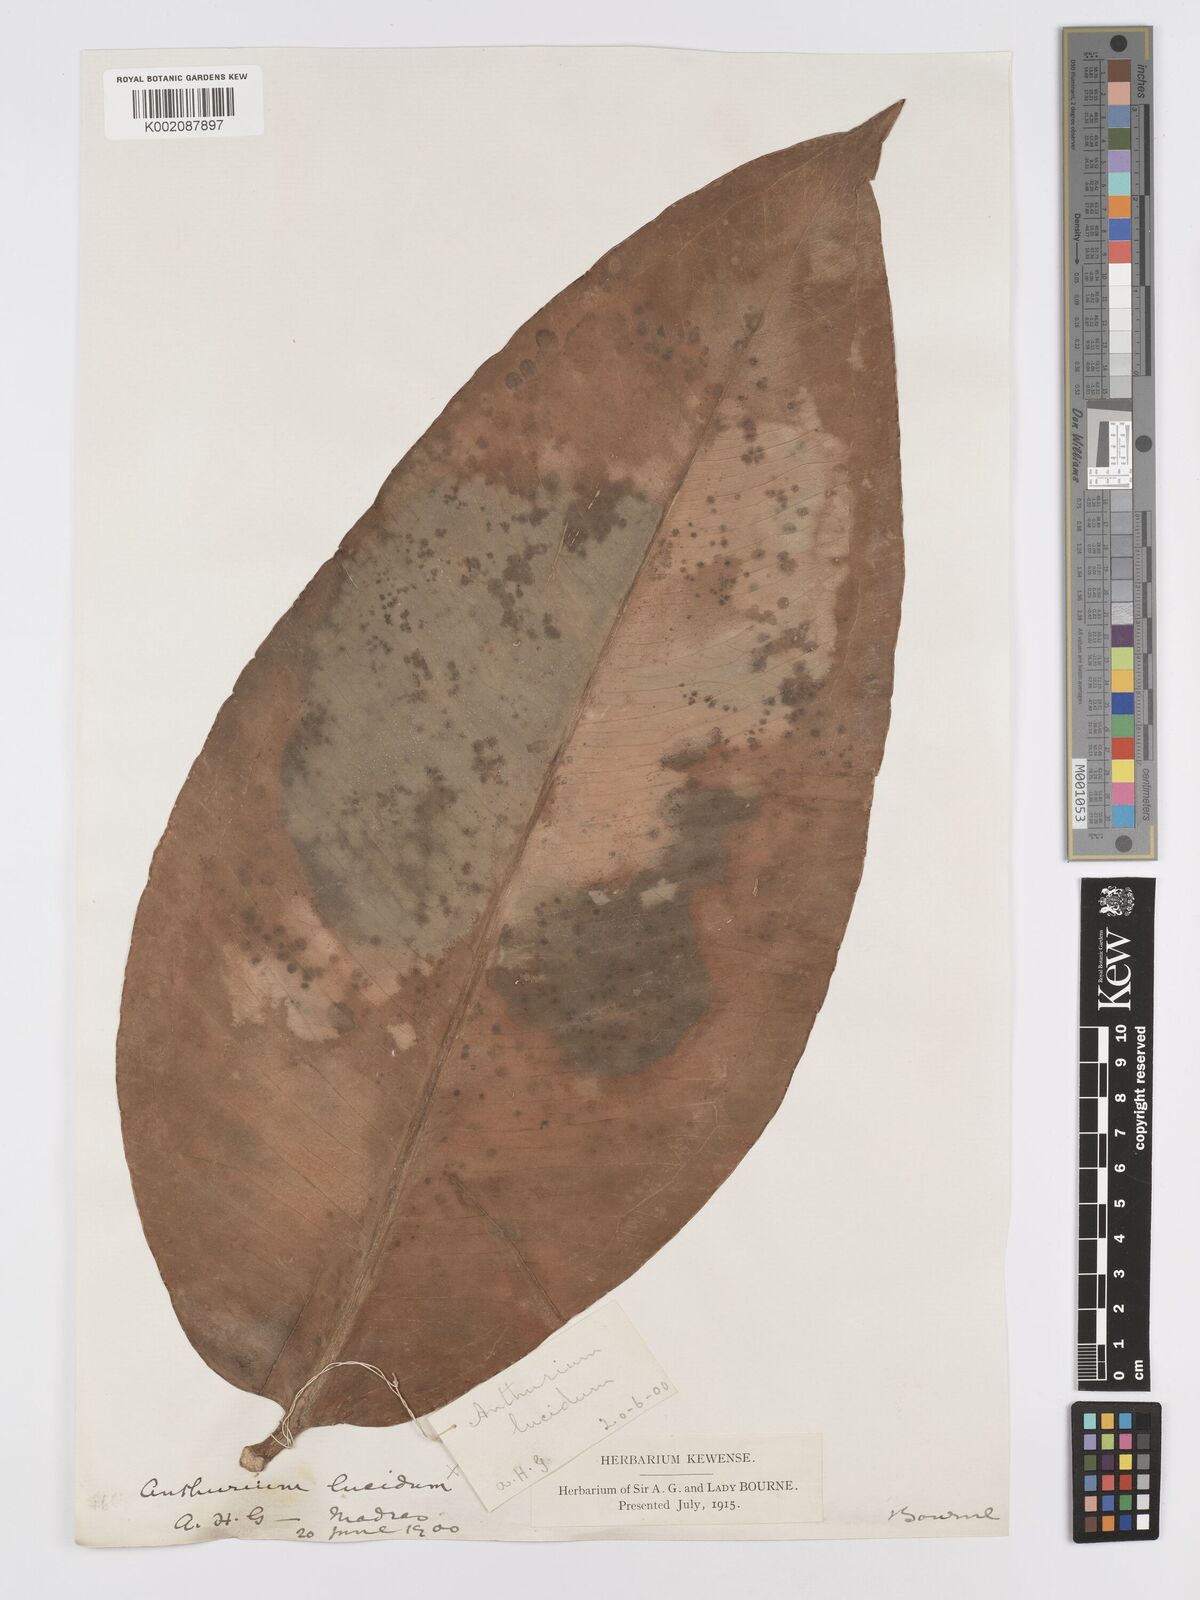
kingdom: Plantae
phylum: Tracheophyta
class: Liliopsida
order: Alismatales
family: Araceae
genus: Anthurium
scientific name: Anthurium cuspidatum
